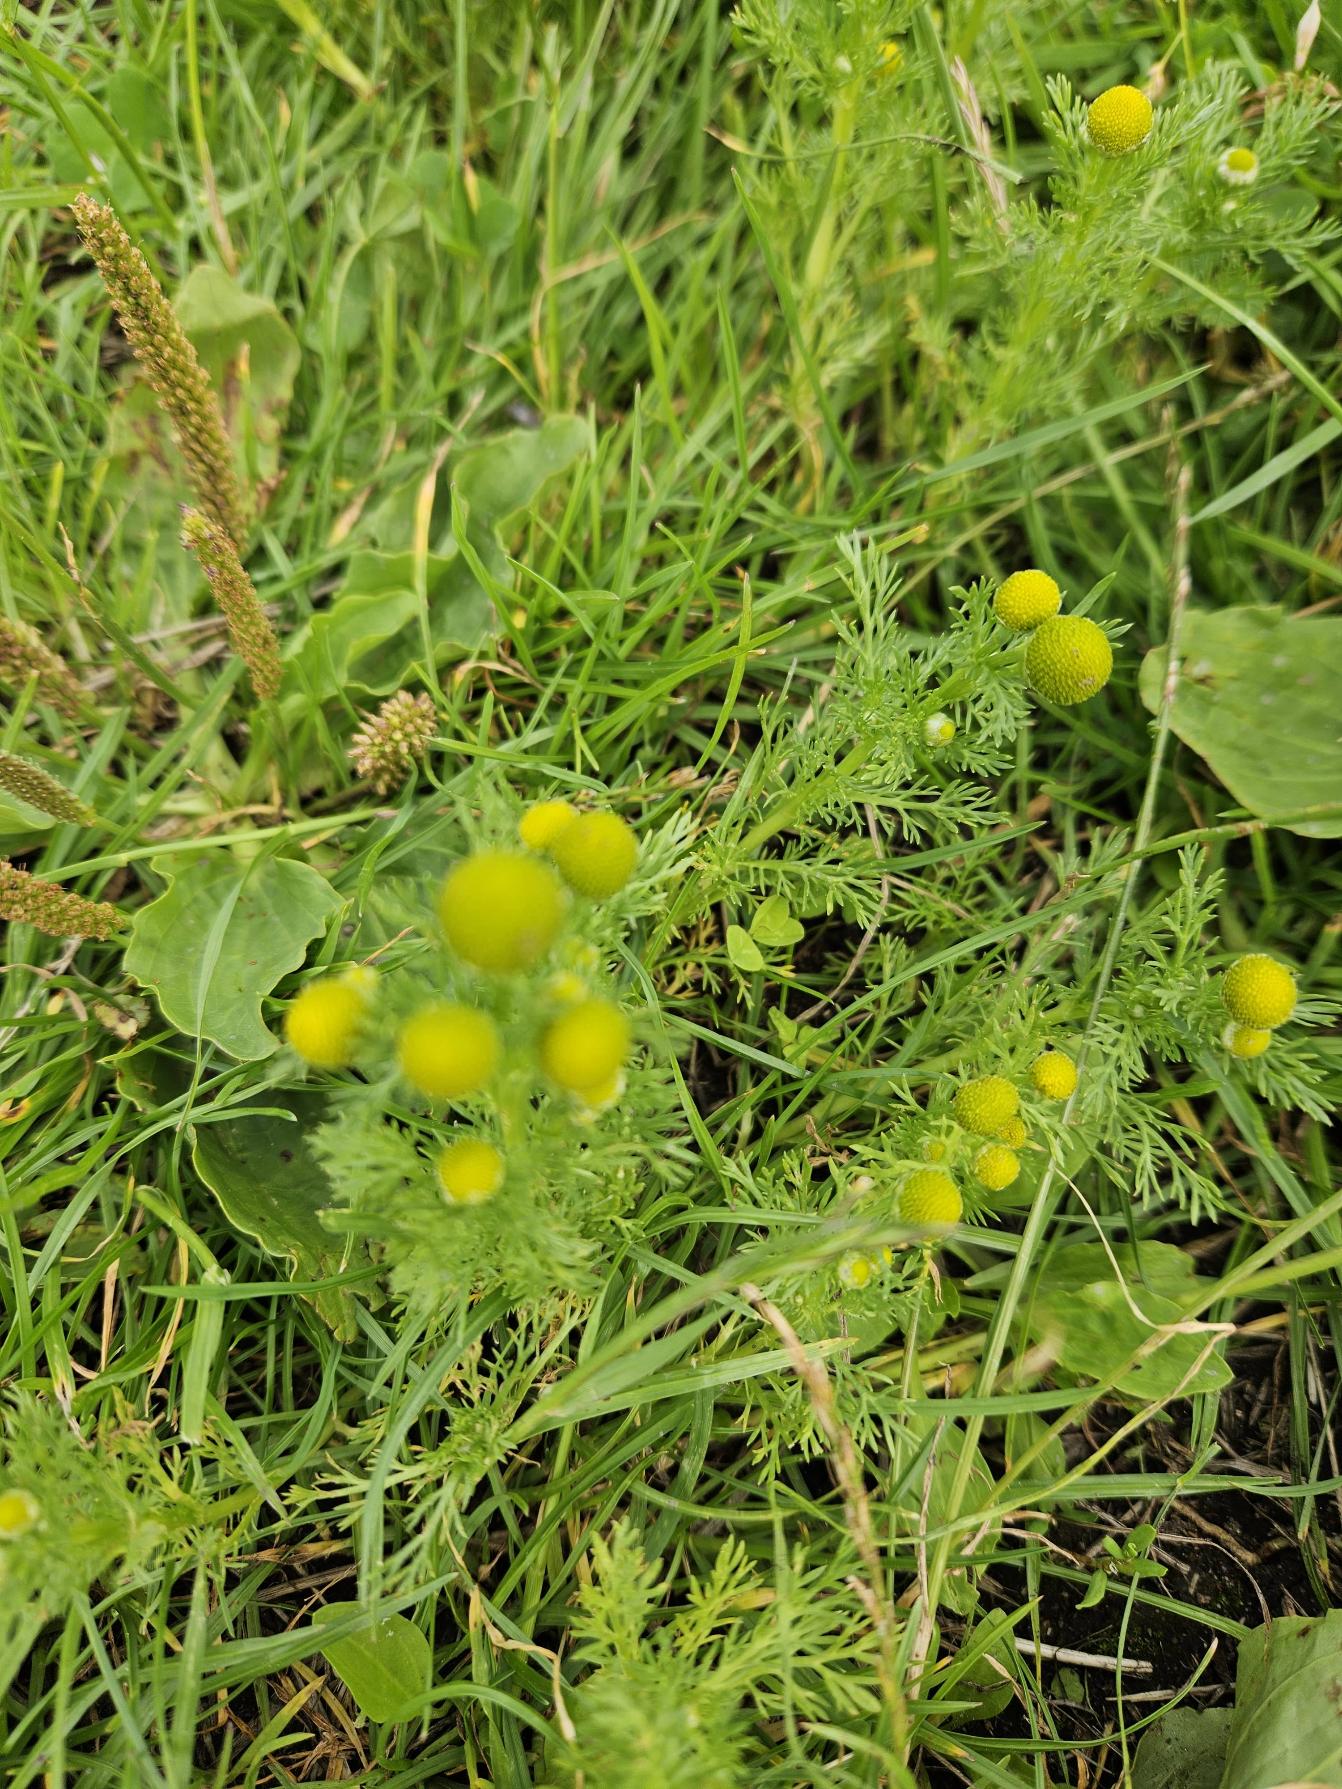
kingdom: Plantae
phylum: Tracheophyta
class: Magnoliopsida
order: Asterales
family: Asteraceae
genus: Matricaria
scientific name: Matricaria discoidea
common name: Skive-kamille
